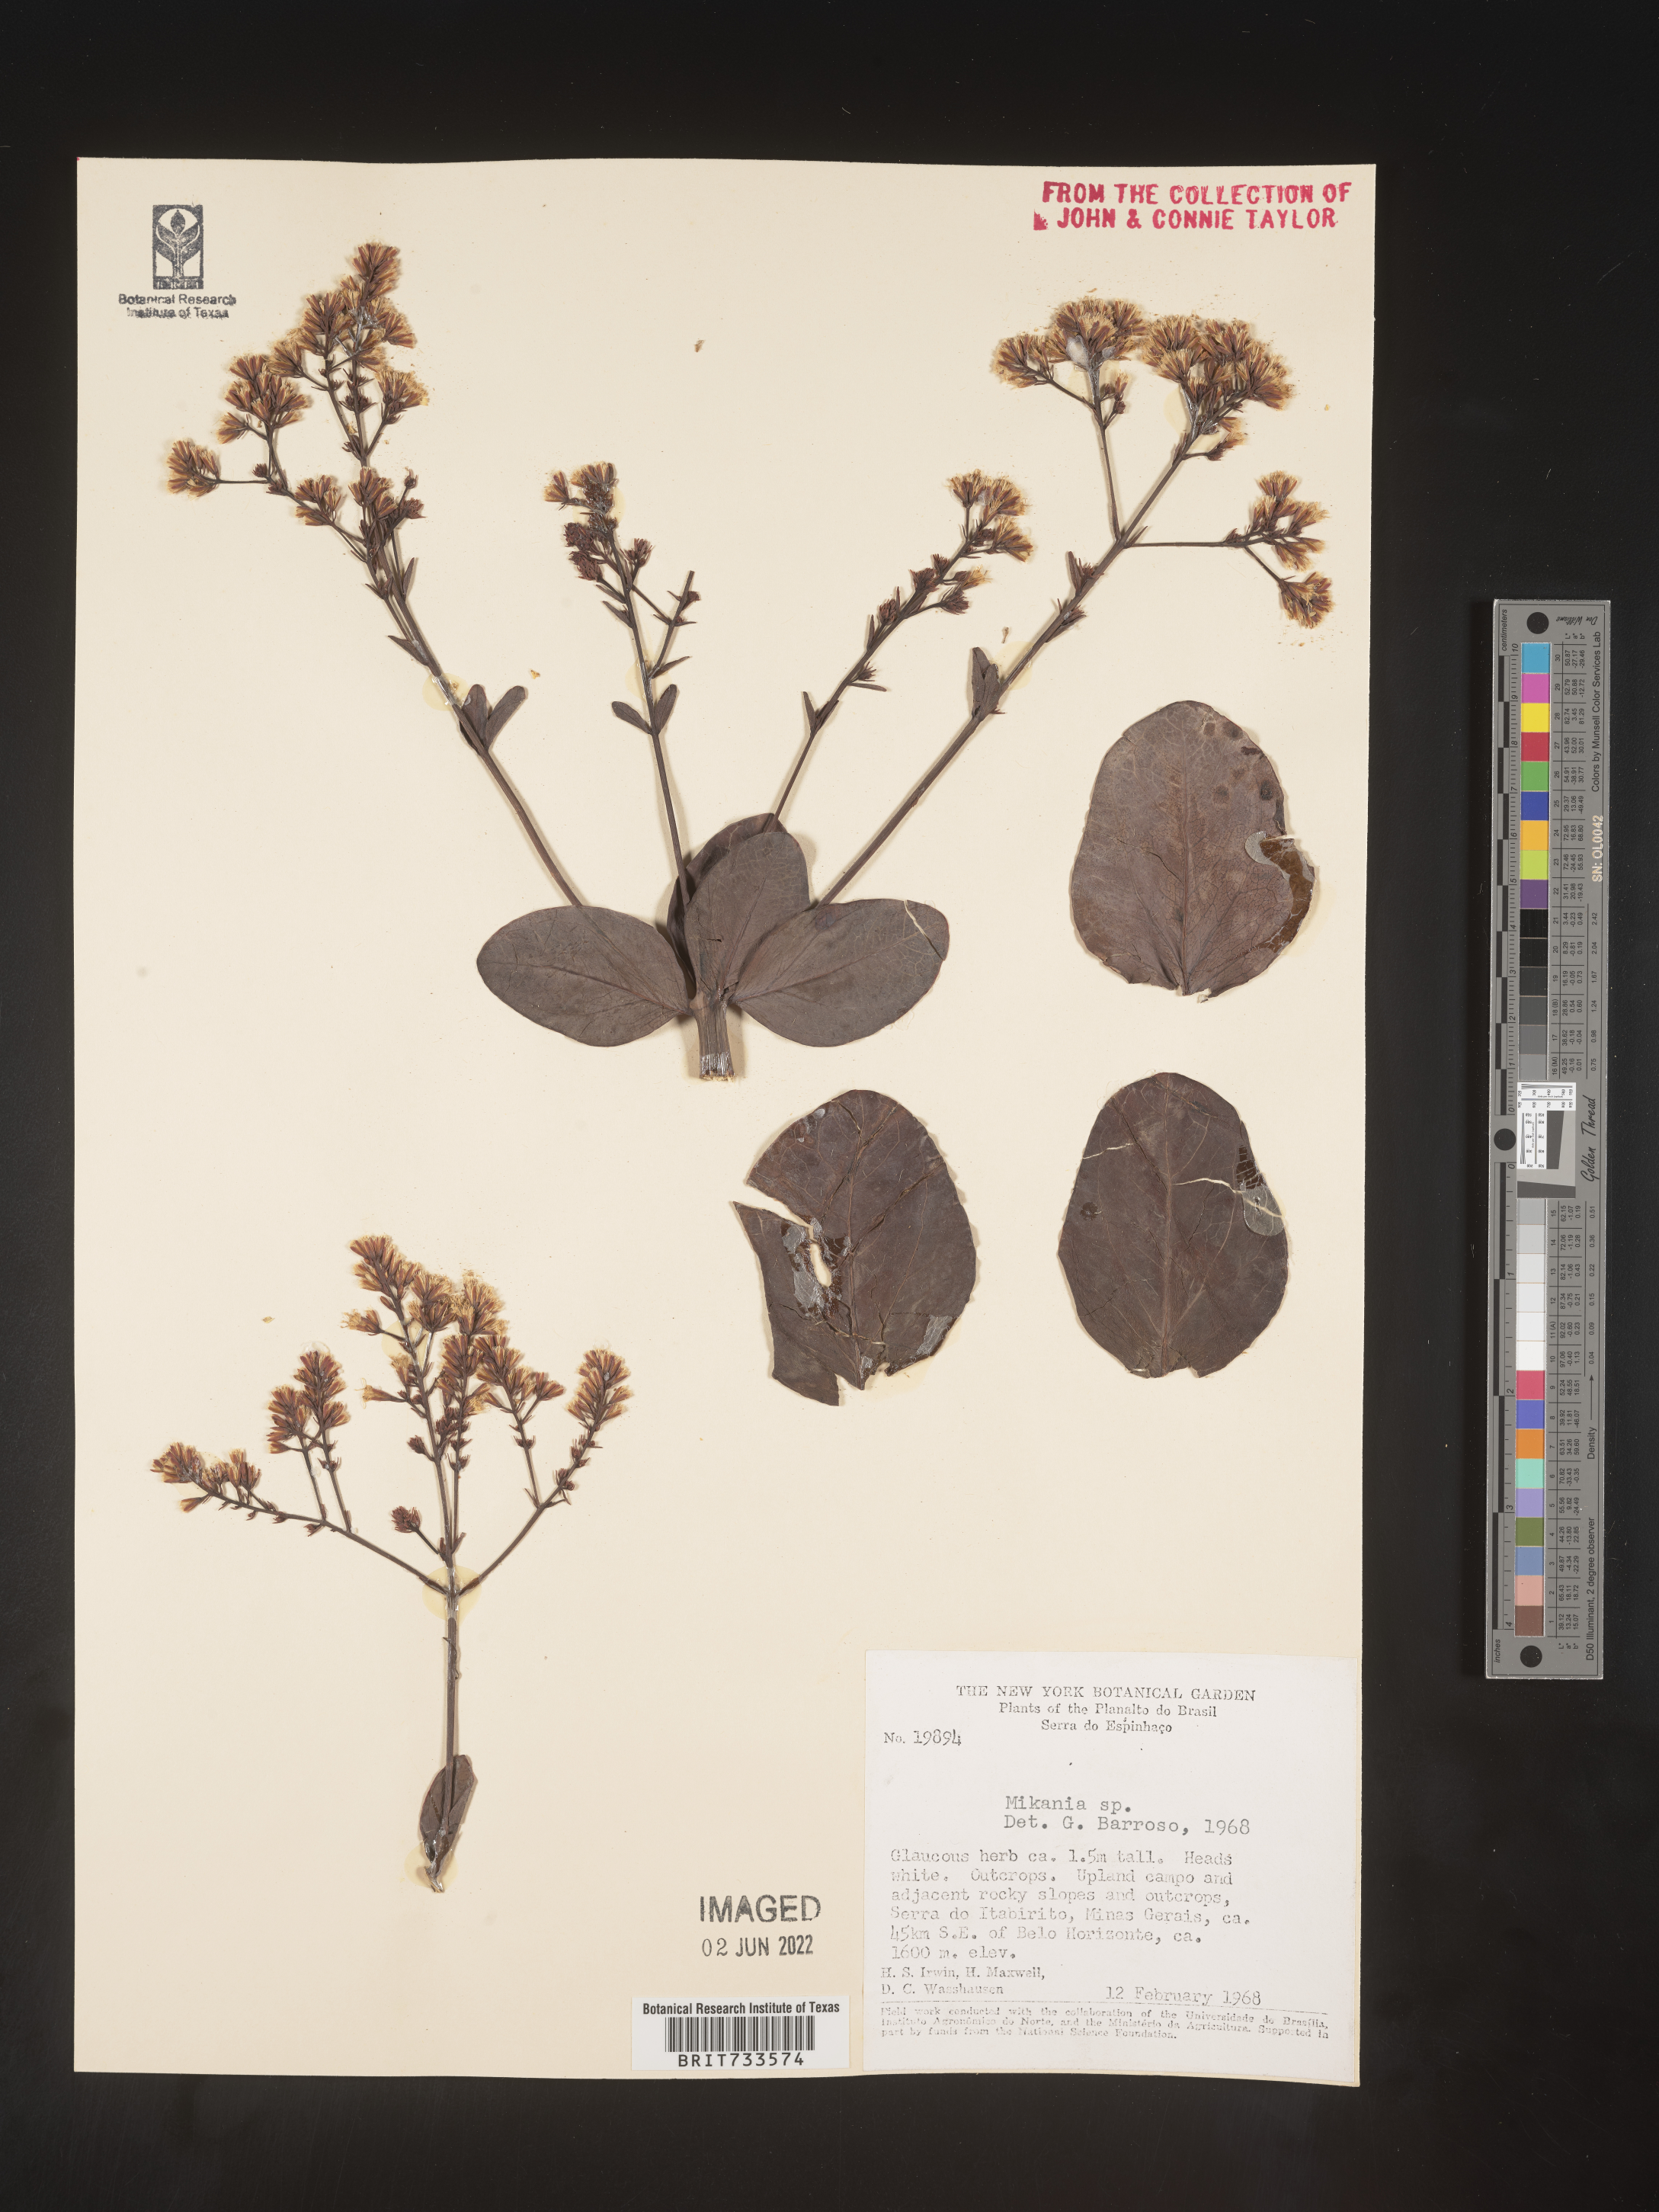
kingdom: Plantae
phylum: Tracheophyta
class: Magnoliopsida
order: Asterales
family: Asteraceae
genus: Mikania
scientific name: Mikania
